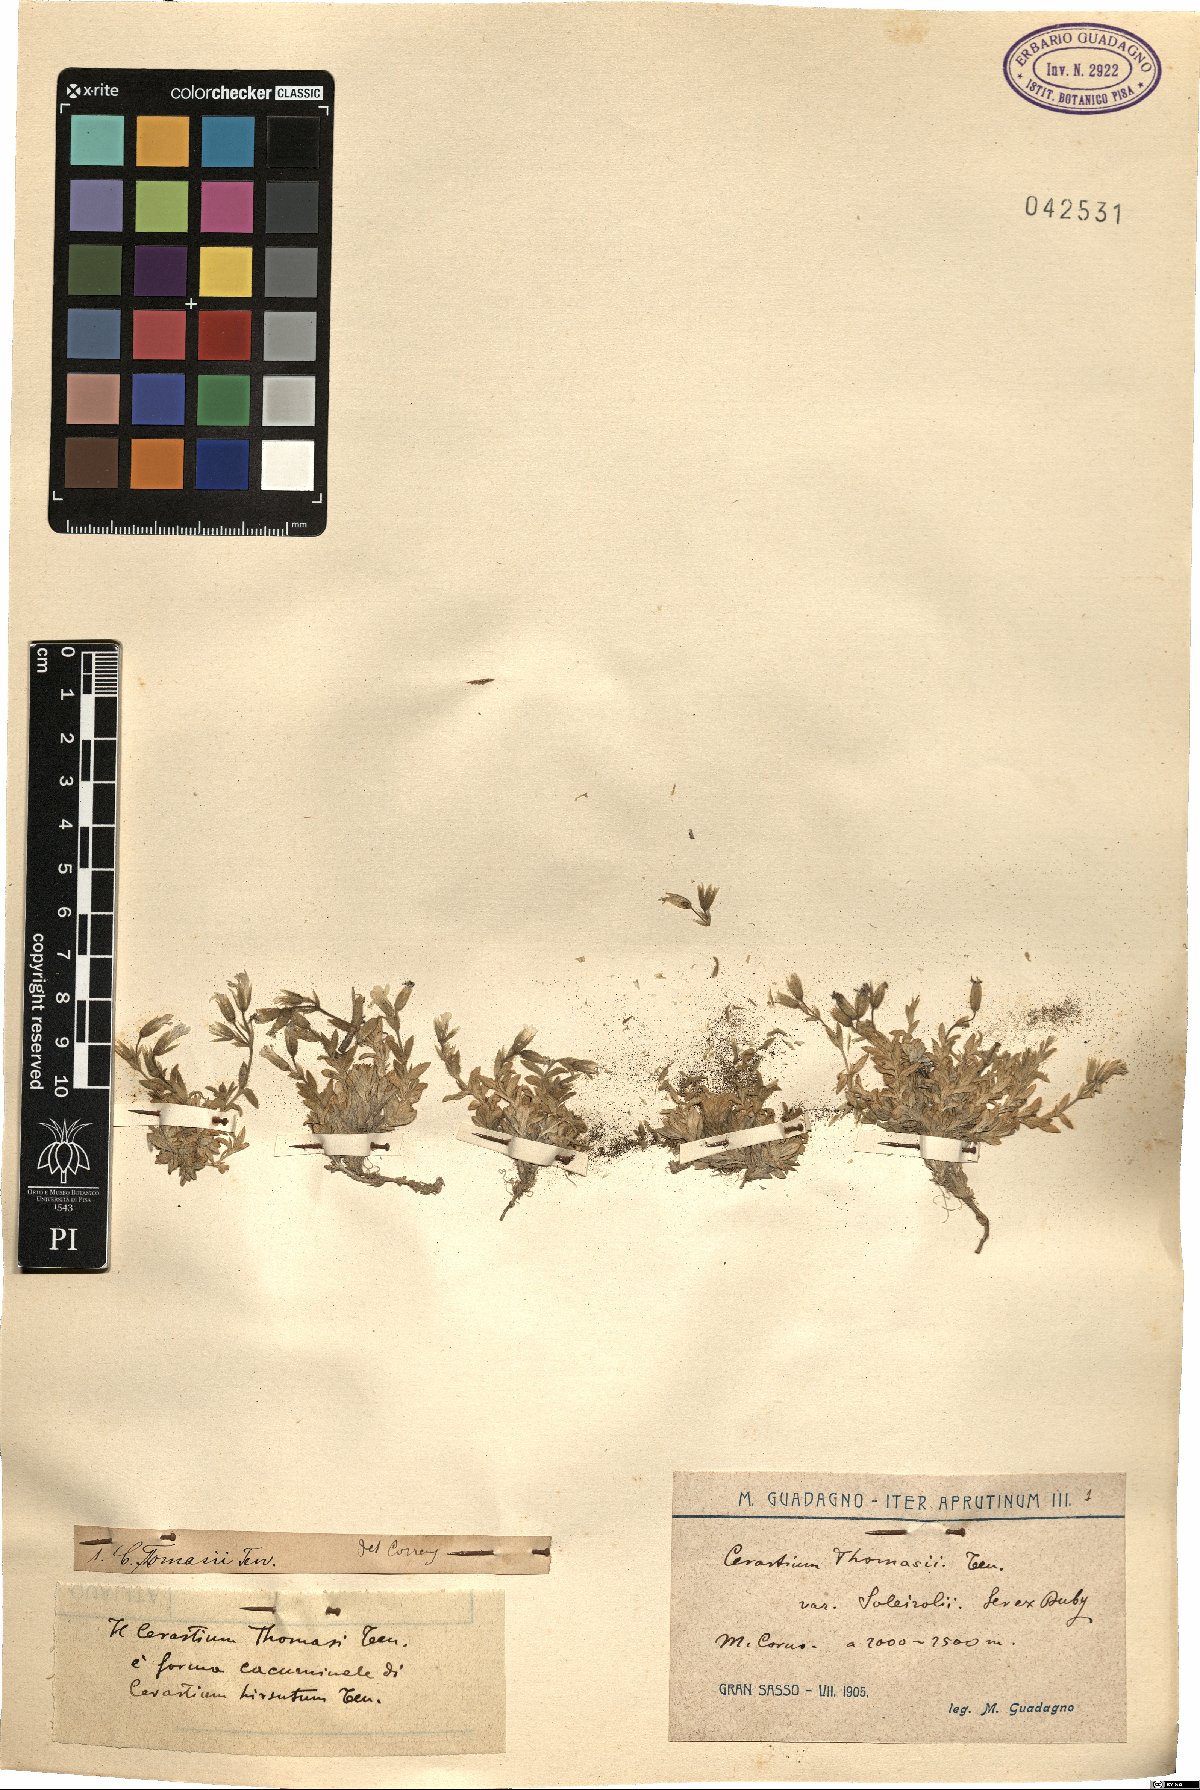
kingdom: Plantae
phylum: Tracheophyta
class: Magnoliopsida
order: Caryophyllales
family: Caryophyllaceae
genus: Cerastium
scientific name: Cerastium thomasii
